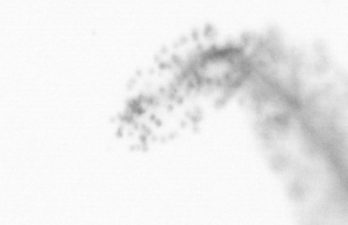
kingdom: Animalia
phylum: Chordata
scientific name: Chordata
